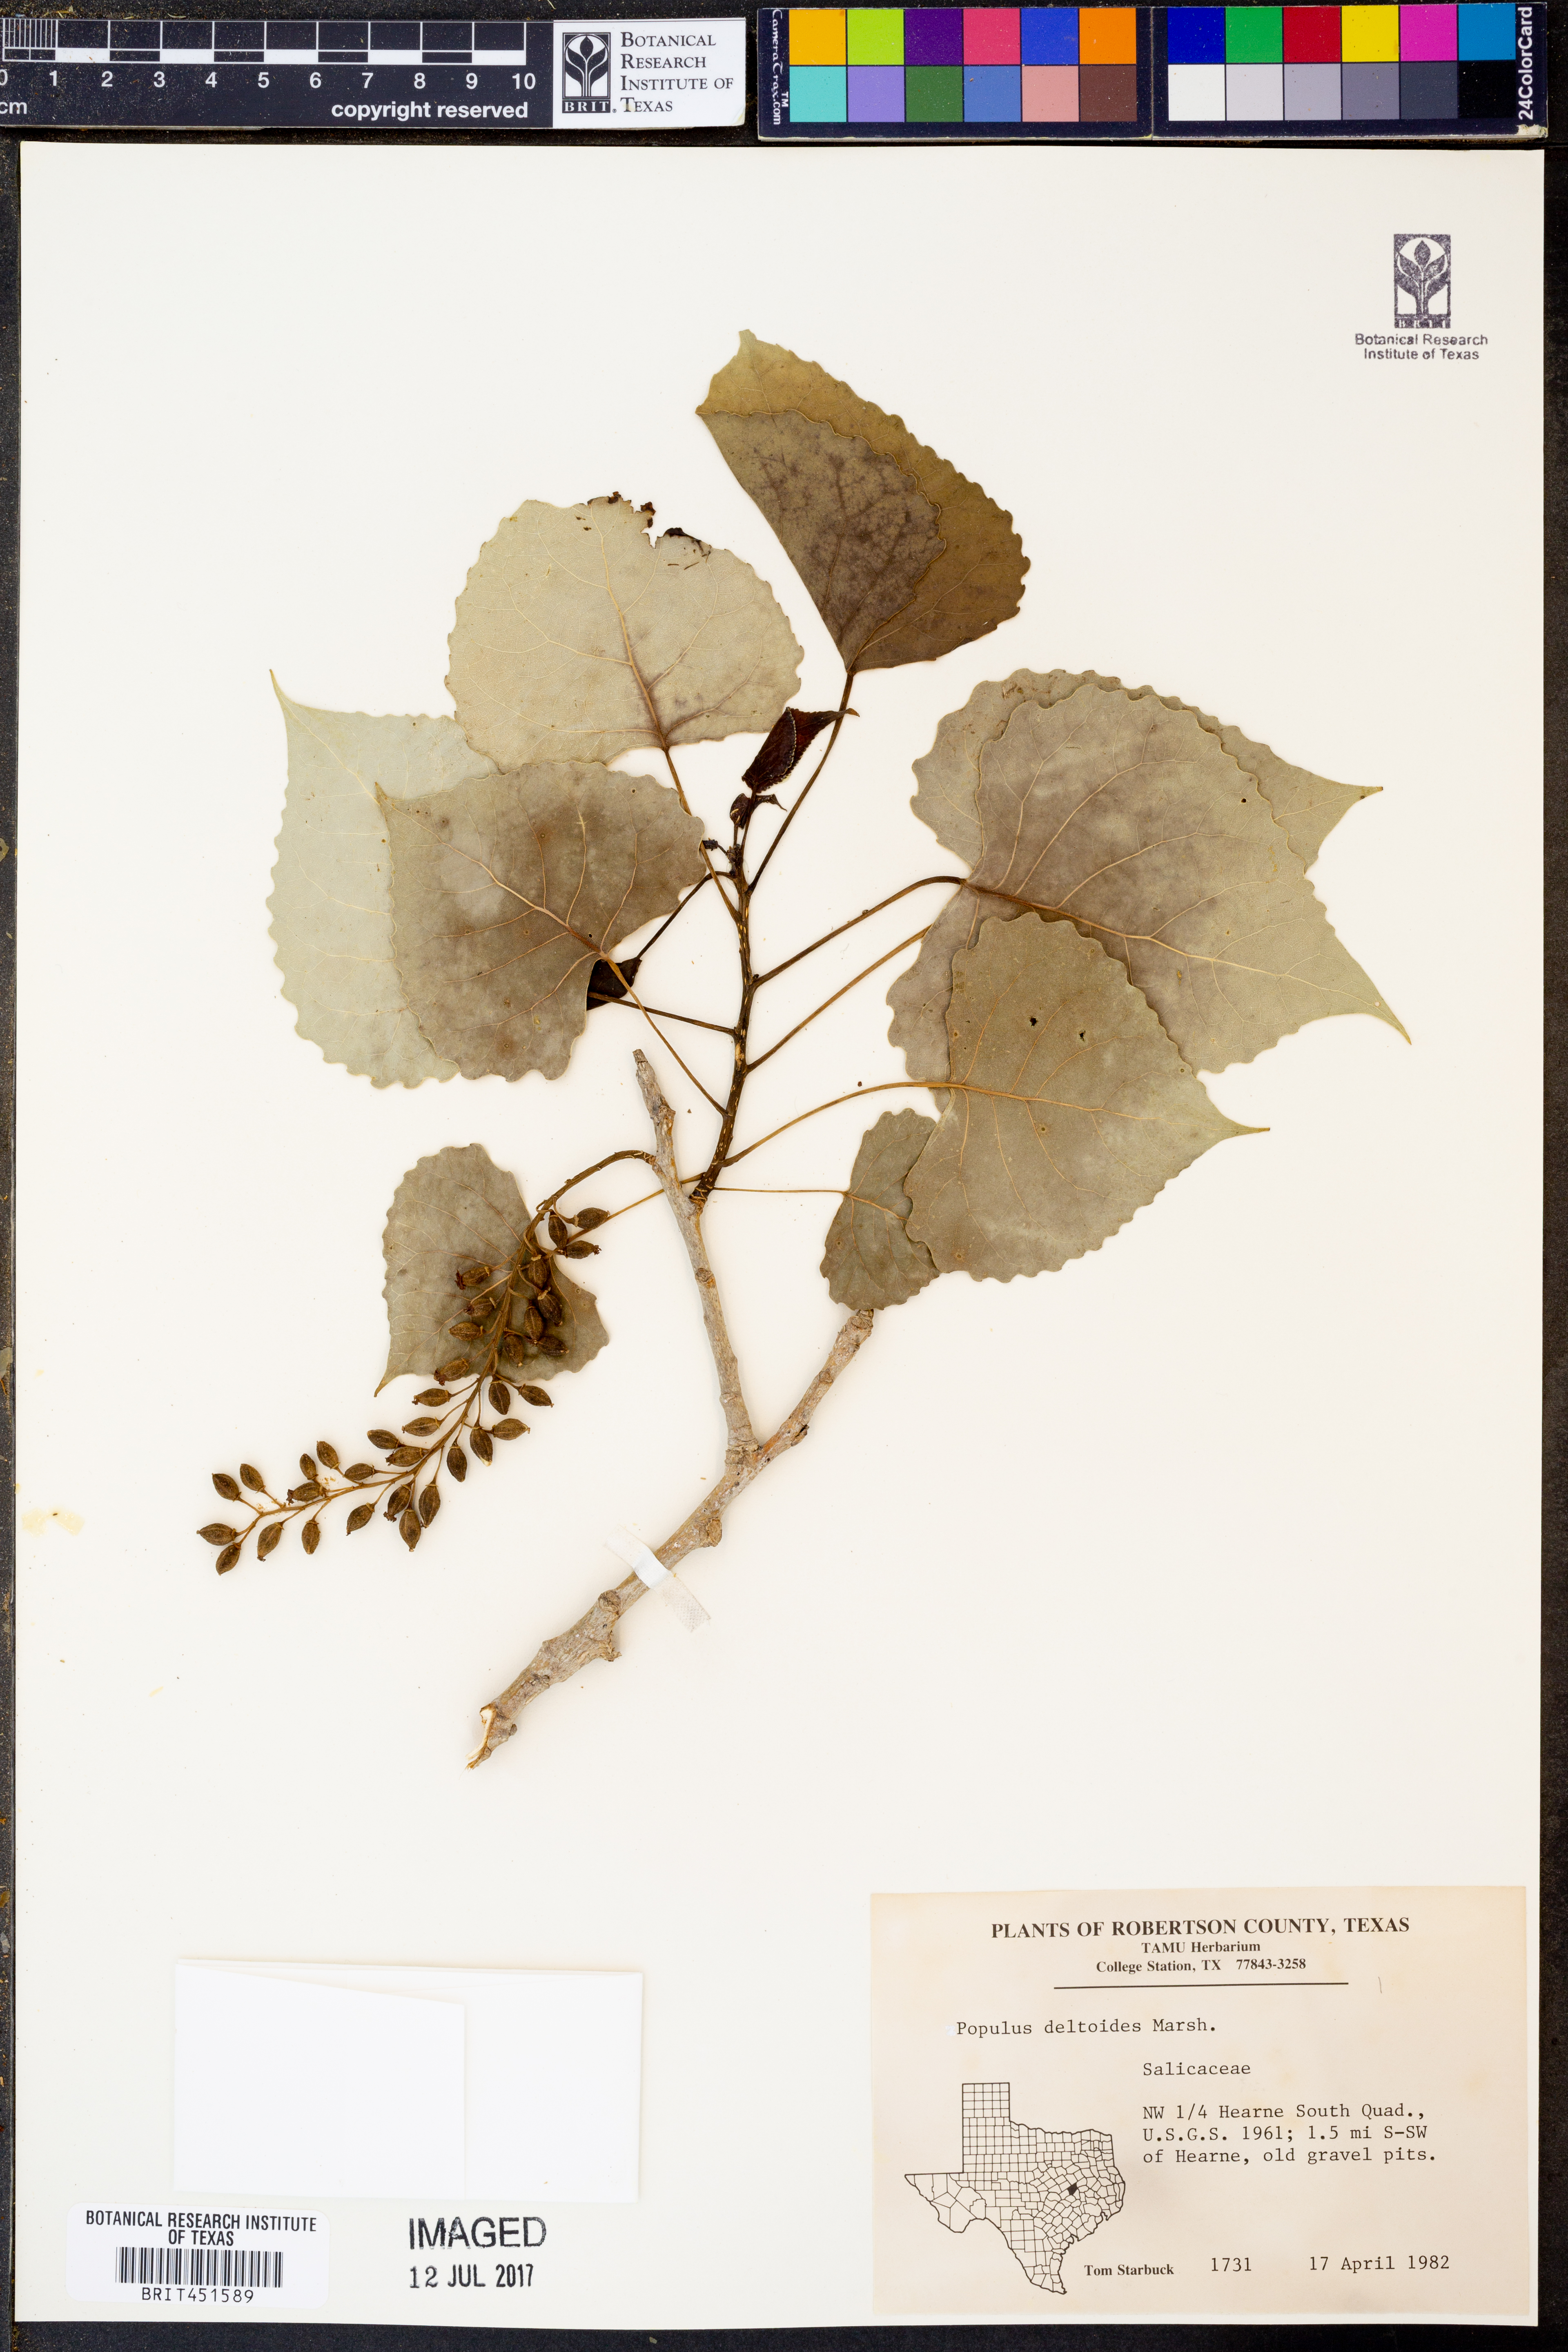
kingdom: Plantae
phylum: Tracheophyta
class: Magnoliopsida
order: Malpighiales
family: Salicaceae
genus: Populus
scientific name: Populus deltoides
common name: Eastern cottonwood
